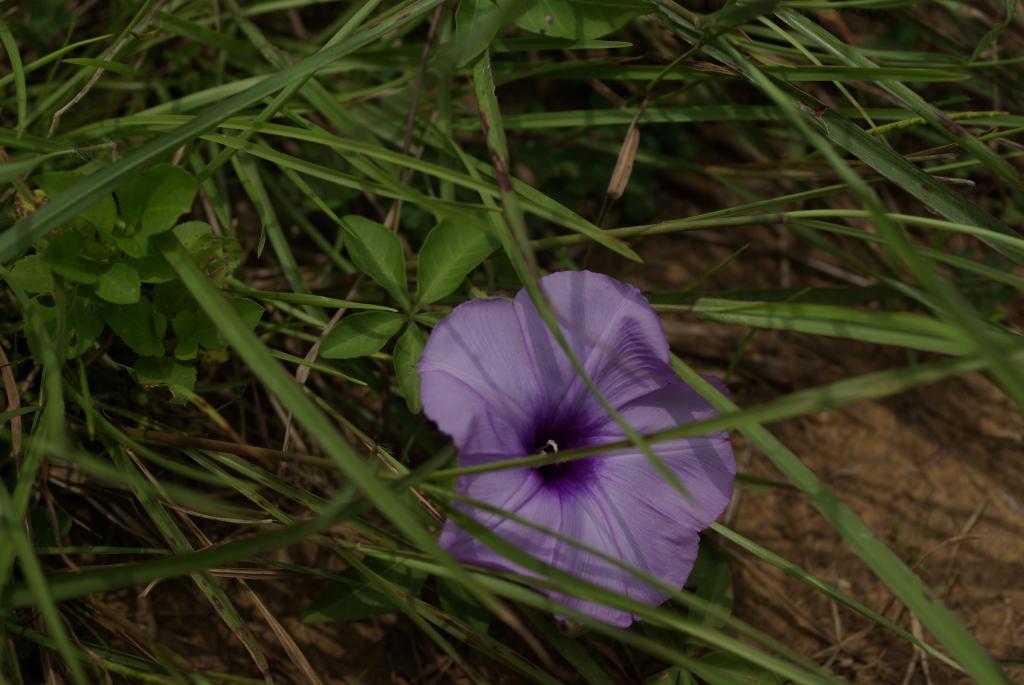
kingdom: Plantae
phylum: Tracheophyta
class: Magnoliopsida
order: Solanales
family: Convolvulaceae
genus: Ipomoea
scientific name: Ipomoea cairica
